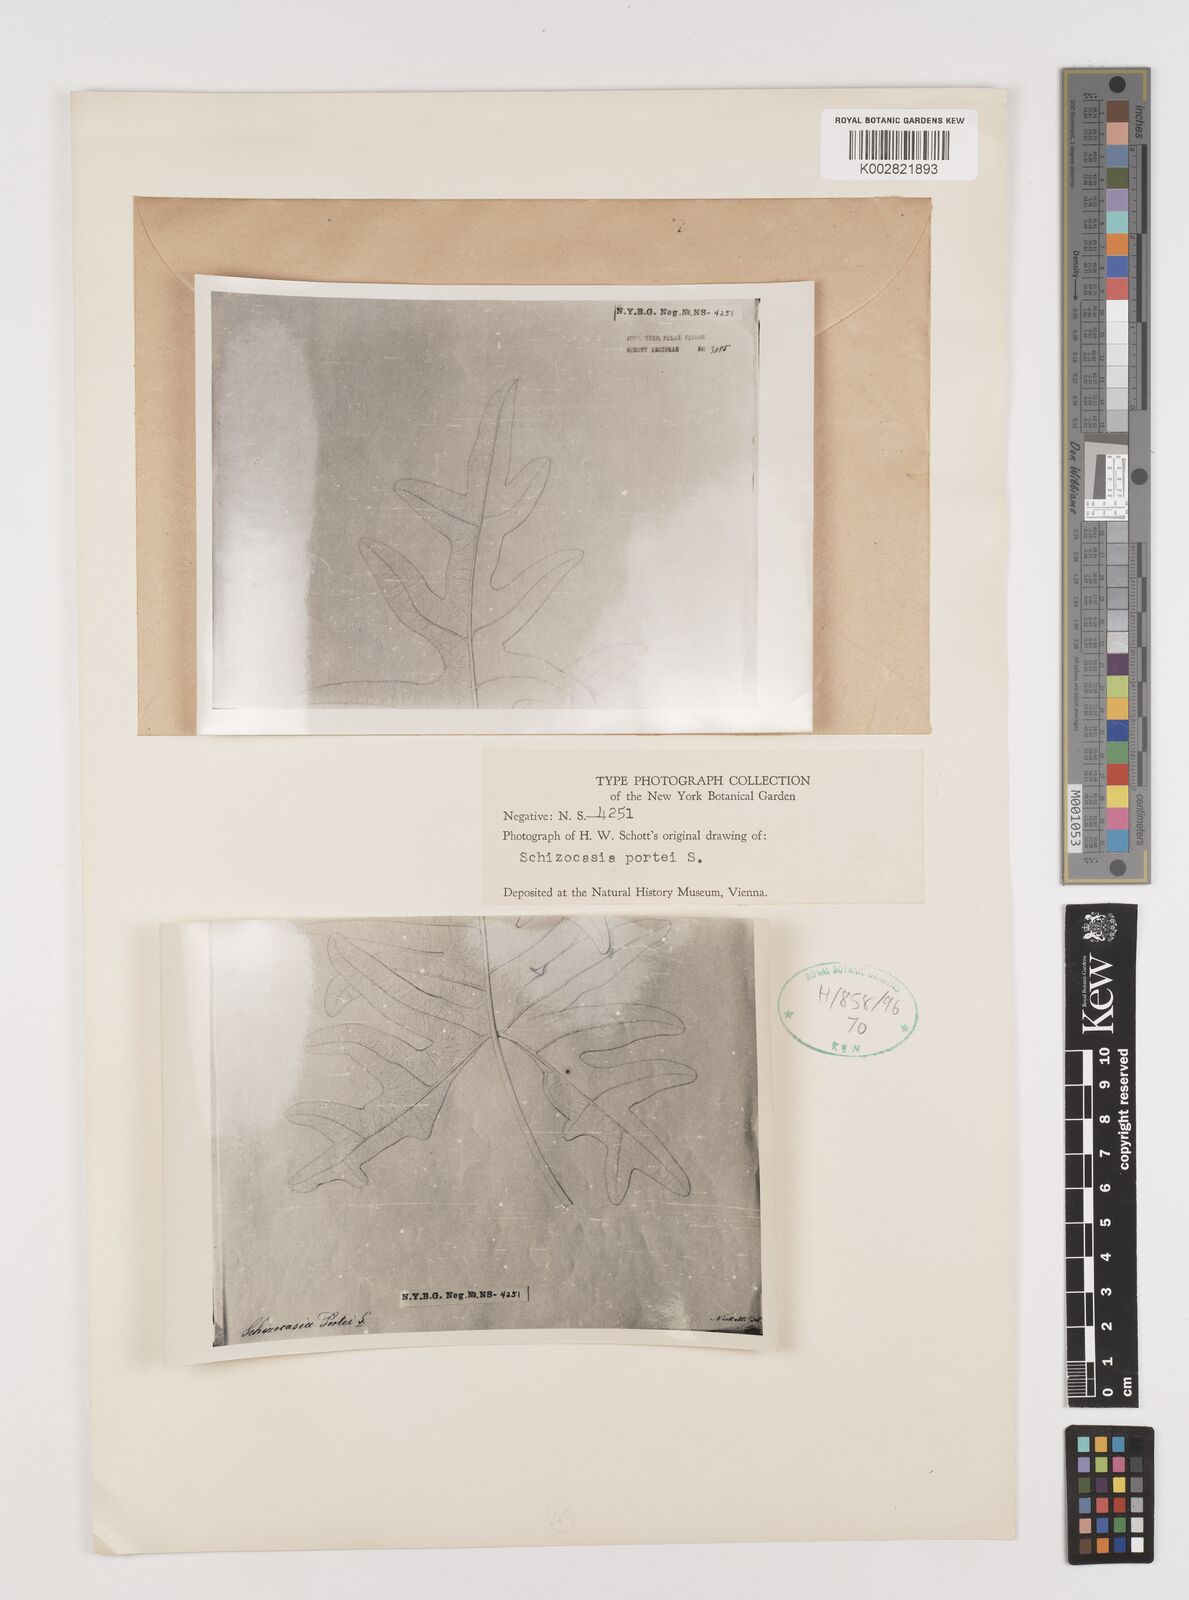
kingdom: Plantae
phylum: Tracheophyta
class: Liliopsida
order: Alismatales
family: Araceae
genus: Alocasia
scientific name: Alocasia portei
